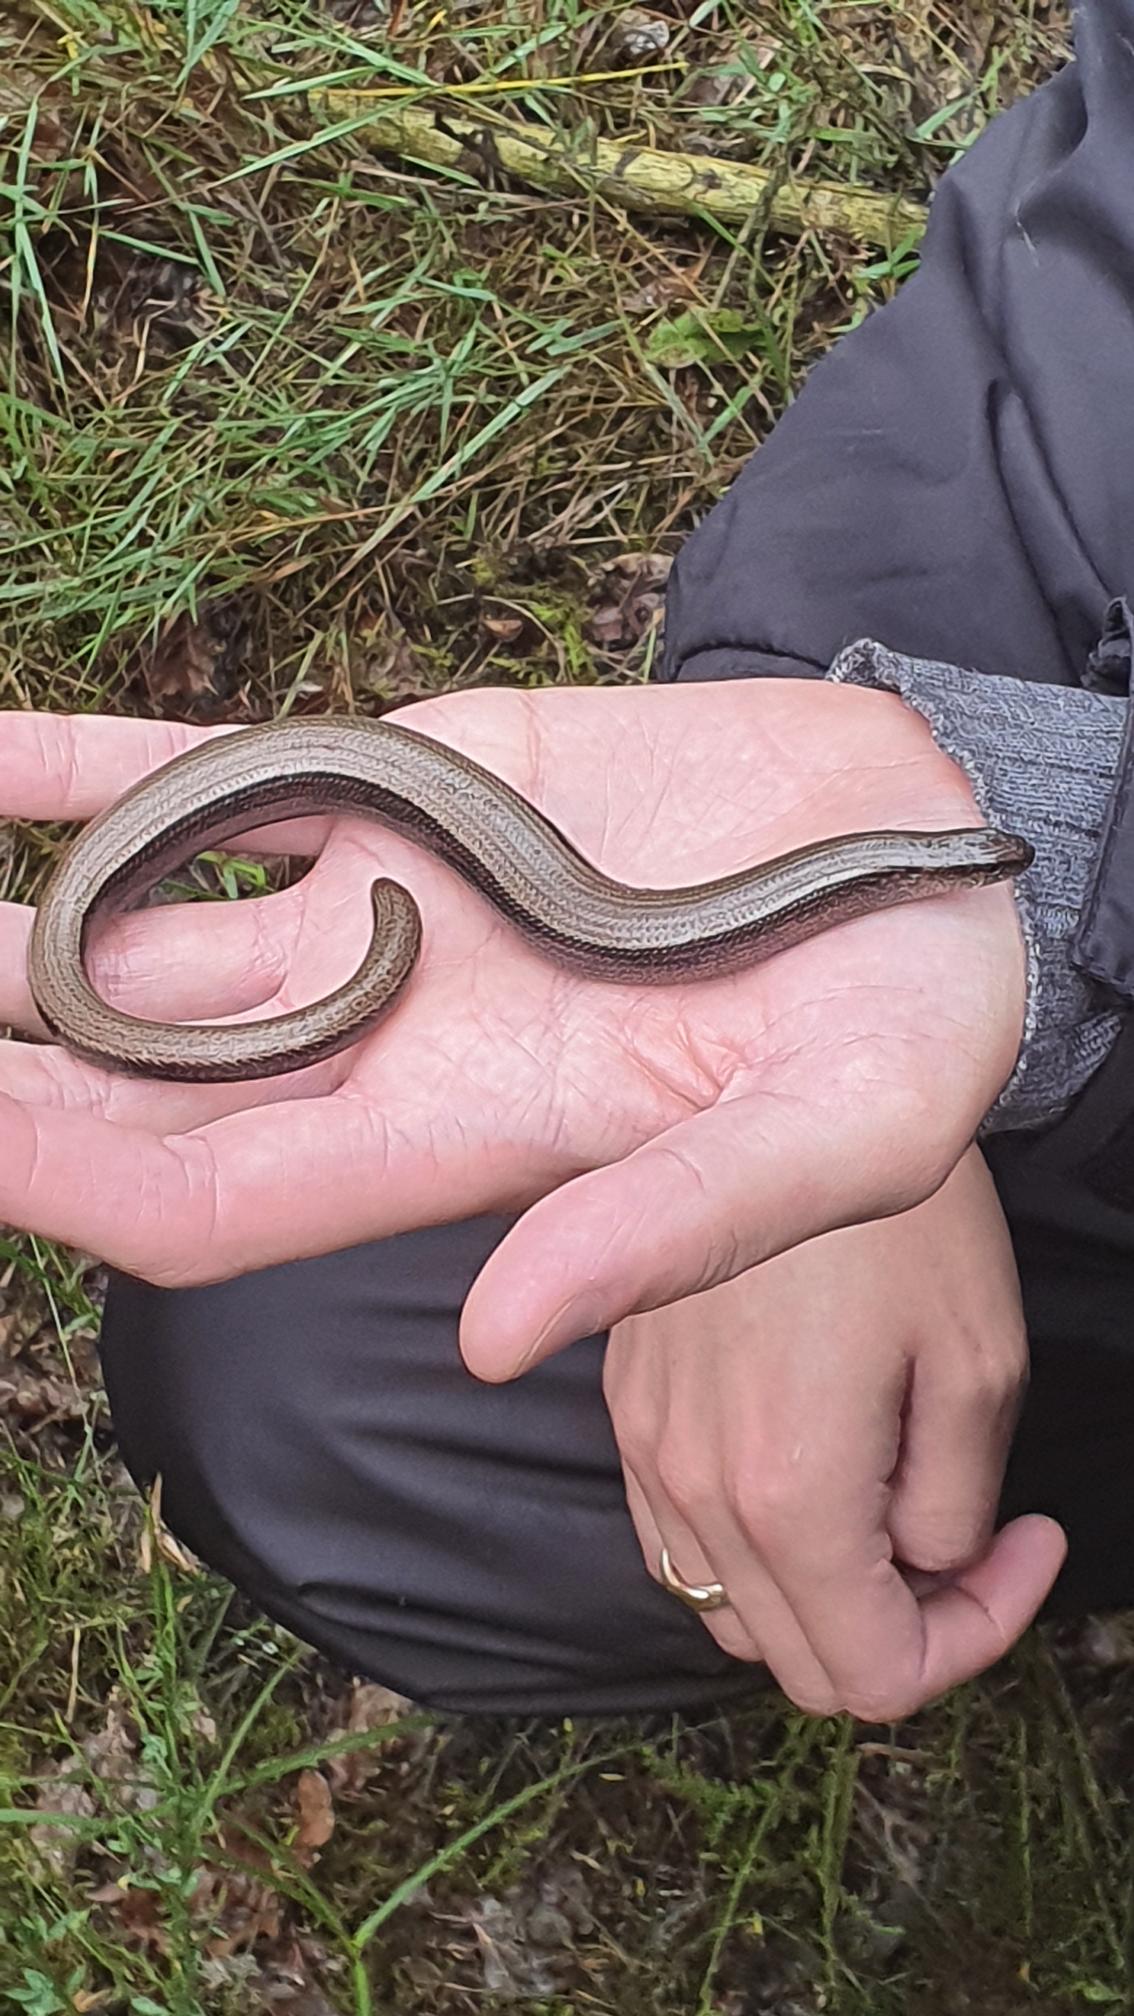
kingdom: Animalia
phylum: Chordata
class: Squamata
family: Anguidae
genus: Anguis
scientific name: Anguis fragilis
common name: Stålorm
